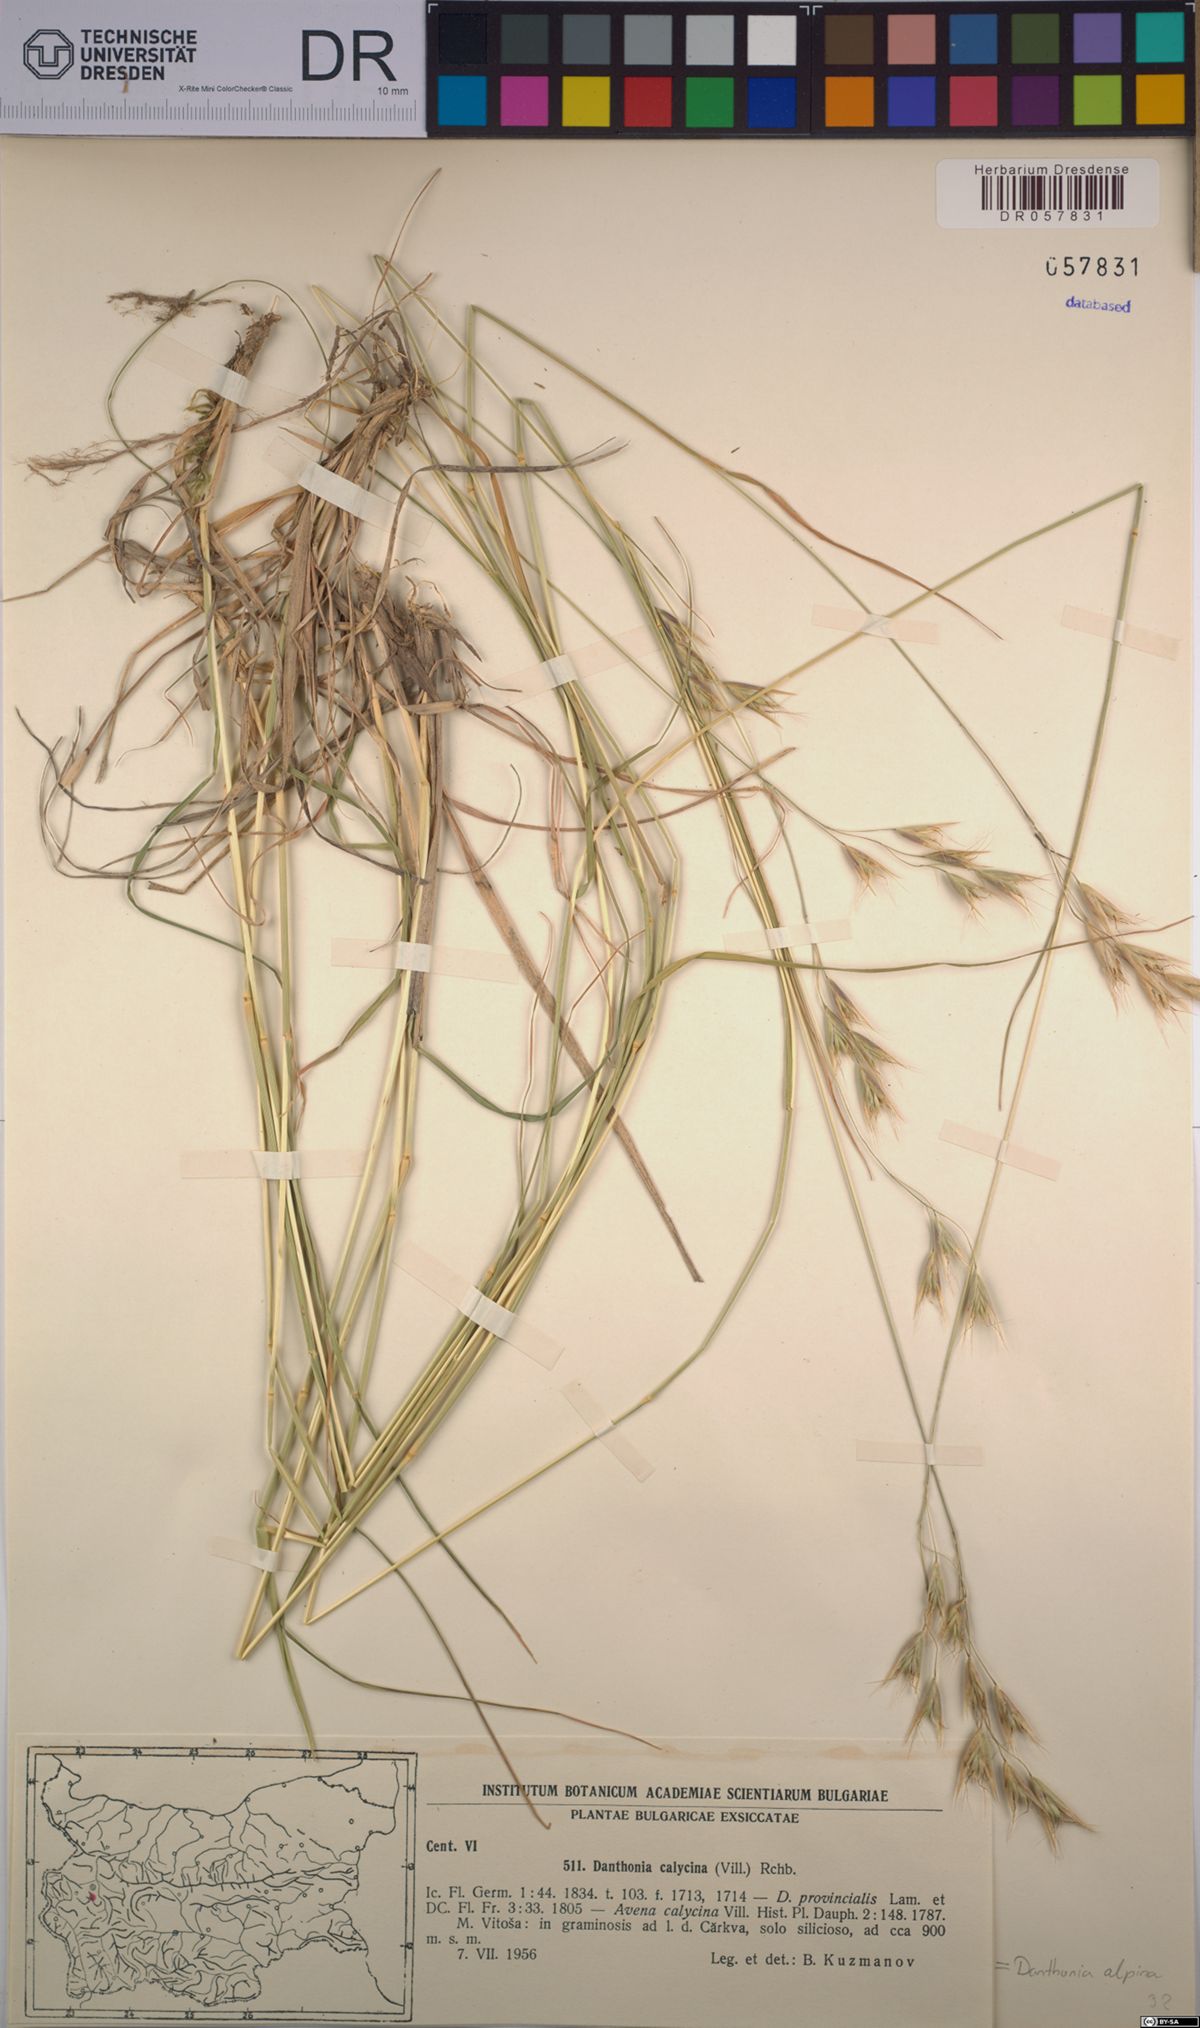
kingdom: Plantae
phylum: Tracheophyta
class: Liliopsida
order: Poales
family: Poaceae
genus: Danthonia
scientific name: Danthonia alpina
